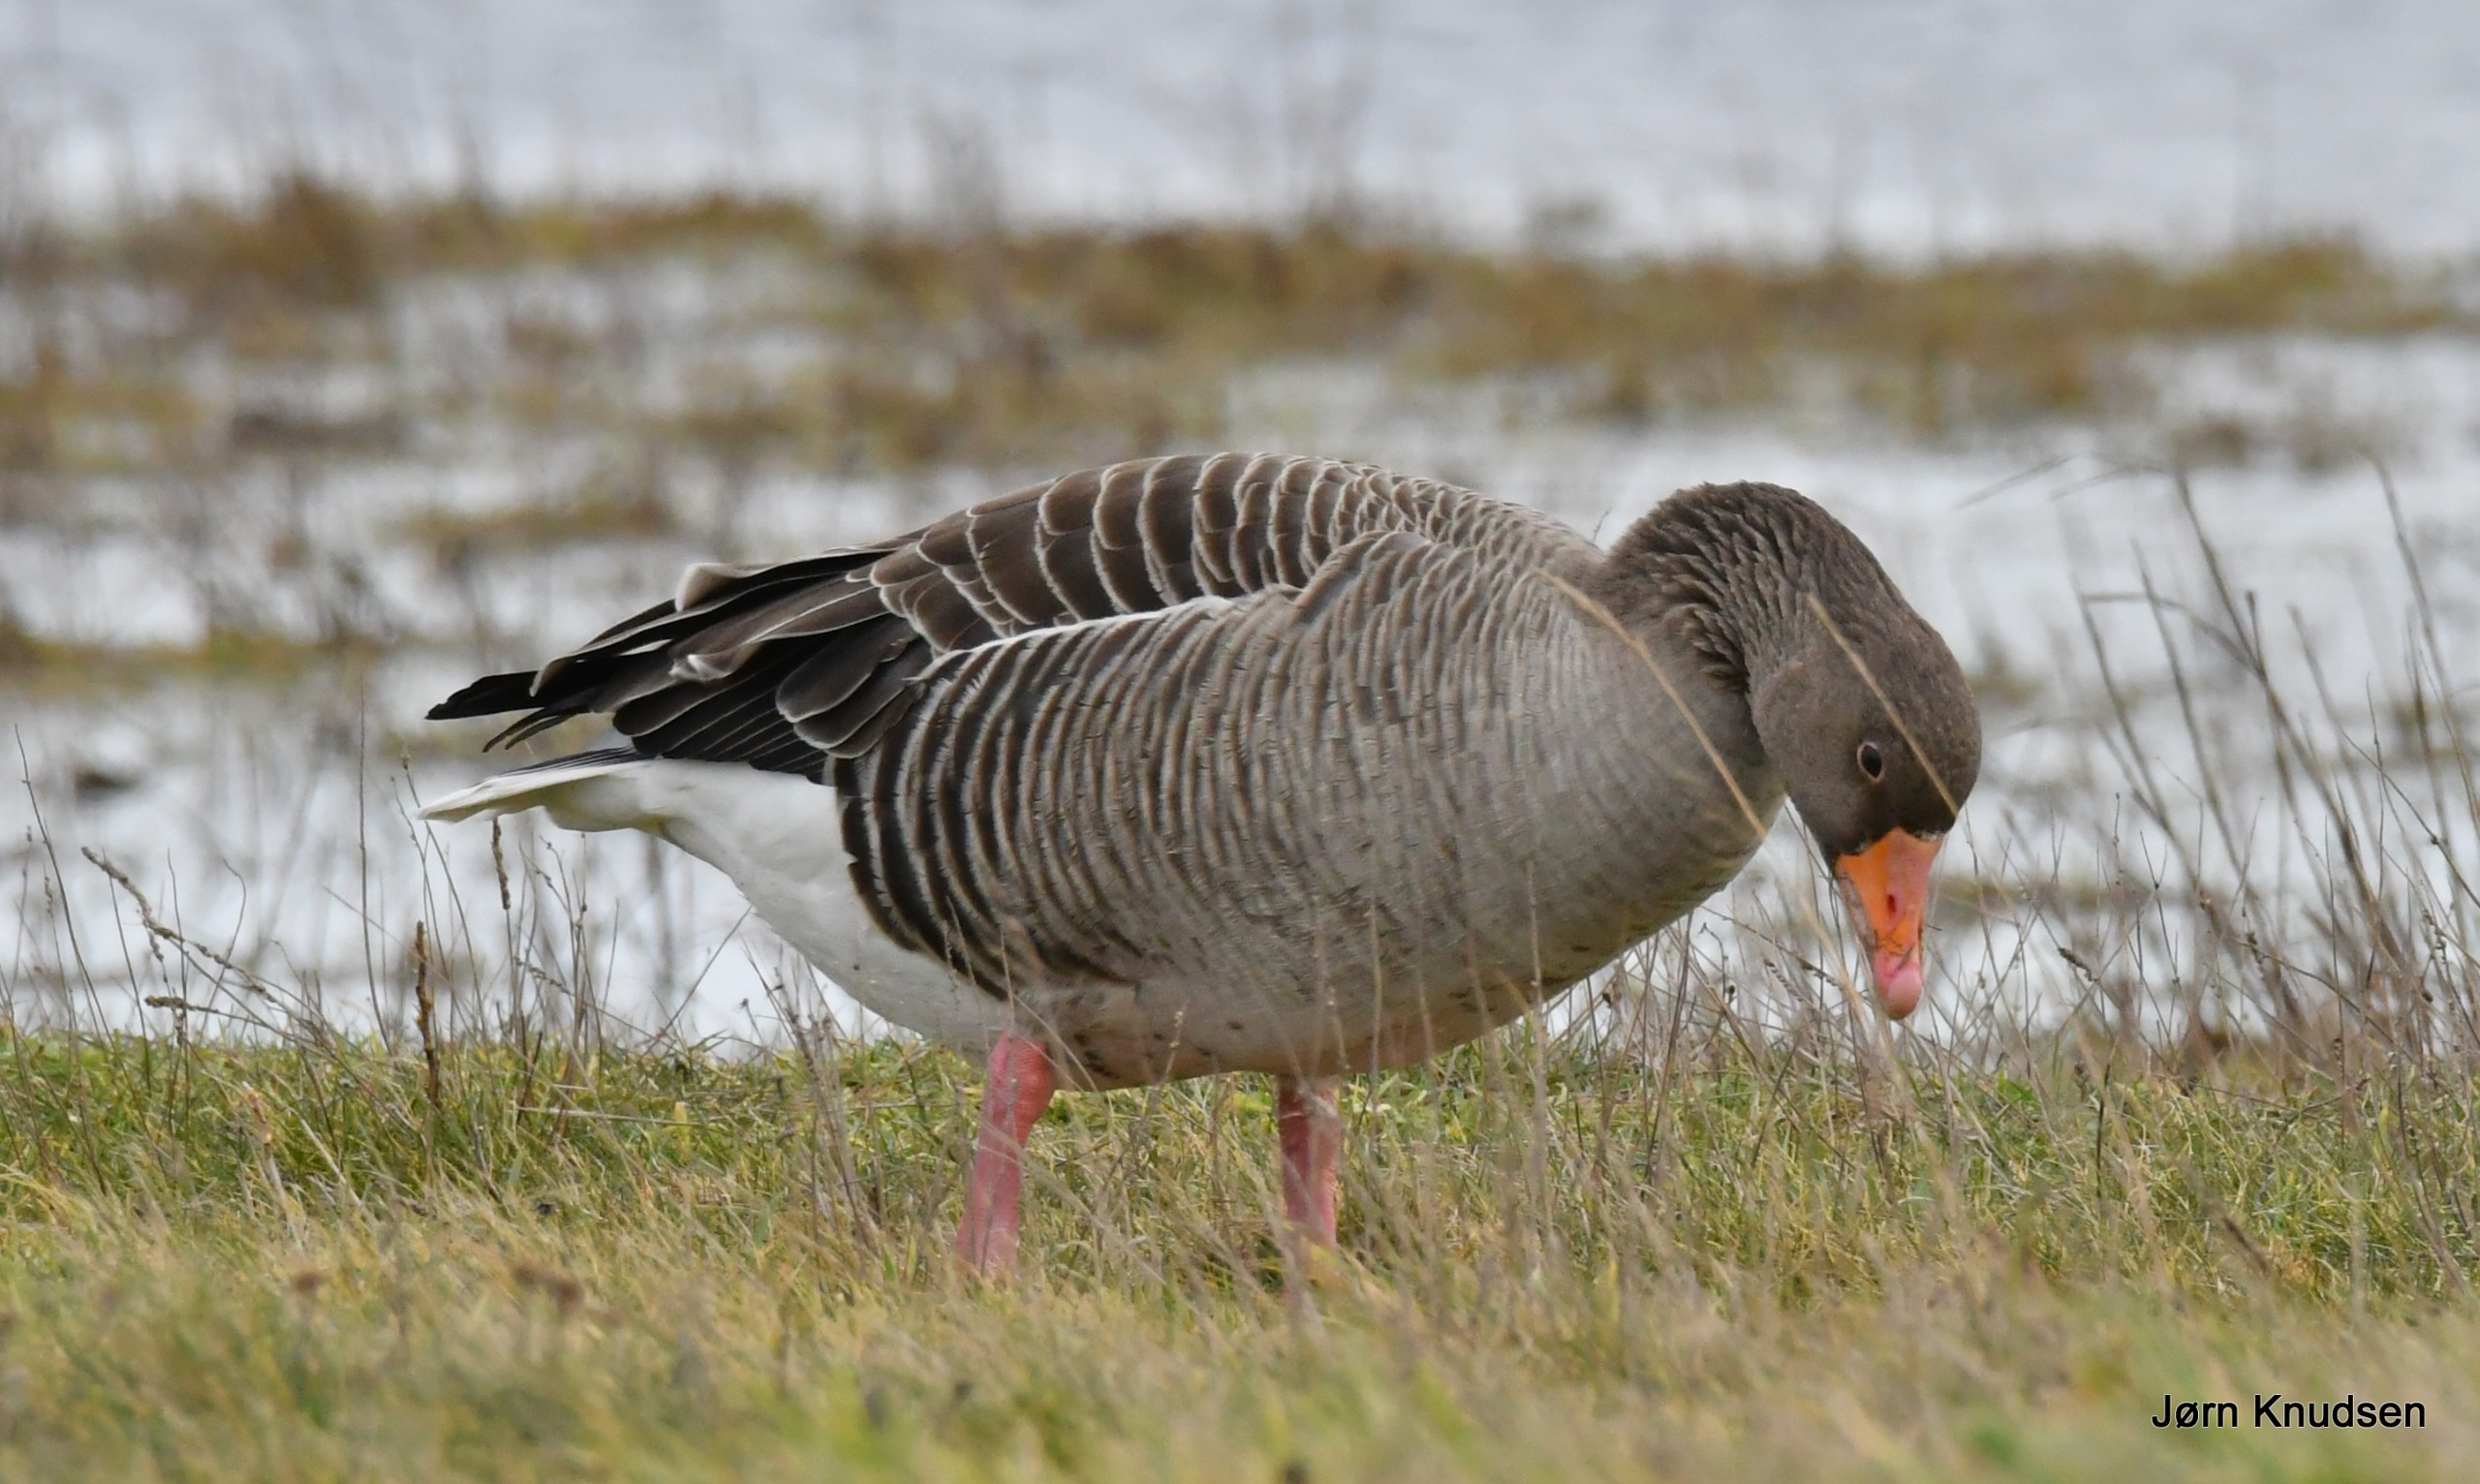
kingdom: Animalia
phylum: Chordata
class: Aves
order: Anseriformes
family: Anatidae
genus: Anser
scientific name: Anser anser
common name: Grågås
